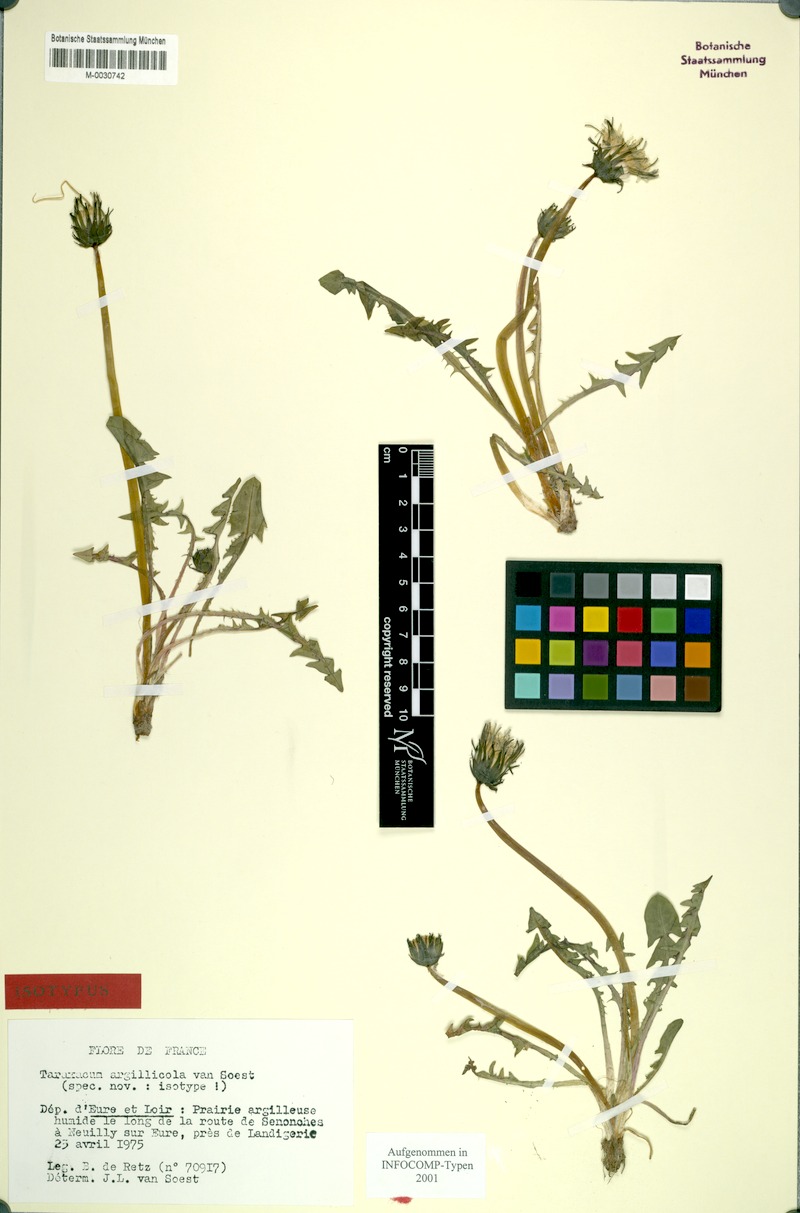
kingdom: Plantae
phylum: Tracheophyta
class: Magnoliopsida
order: Asterales
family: Asteraceae
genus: Taraxacum
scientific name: Taraxacum argillicola
